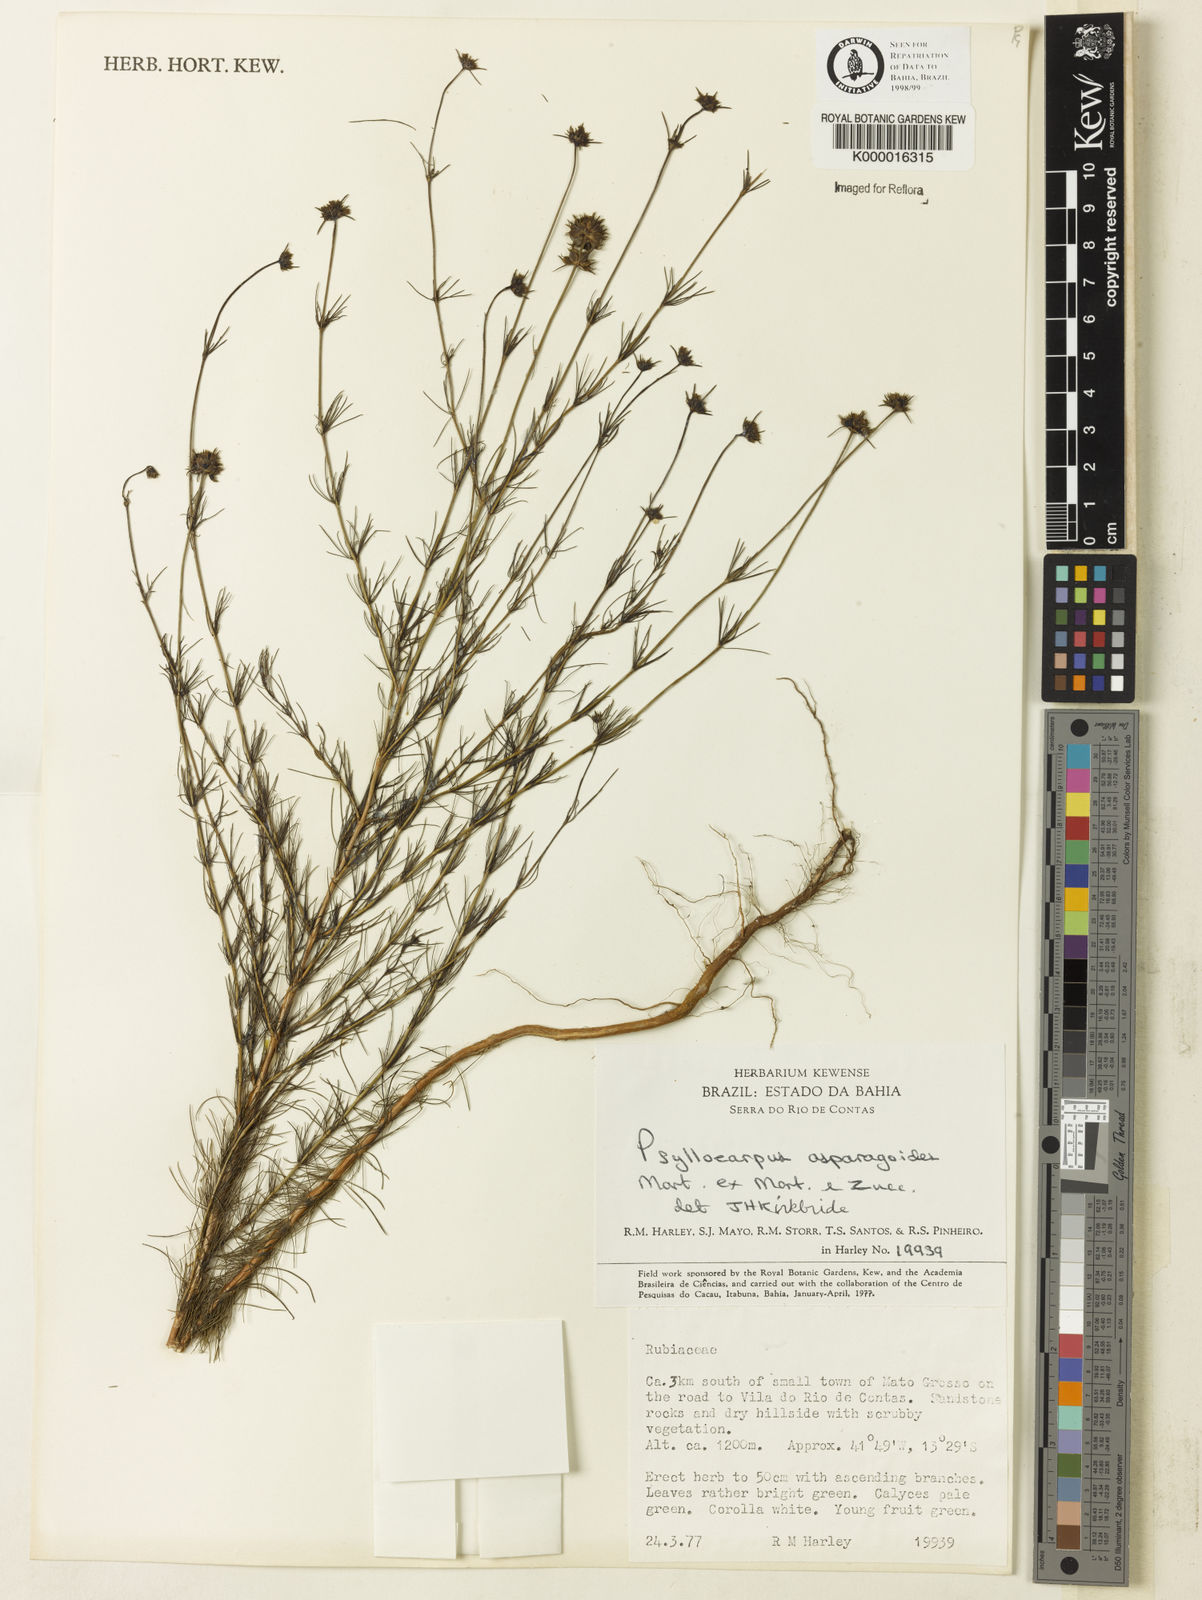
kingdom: Plantae
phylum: Tracheophyta
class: Magnoliopsida
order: Gentianales
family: Rubiaceae
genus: Psyllocarpus
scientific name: Psyllocarpus asparagoides
